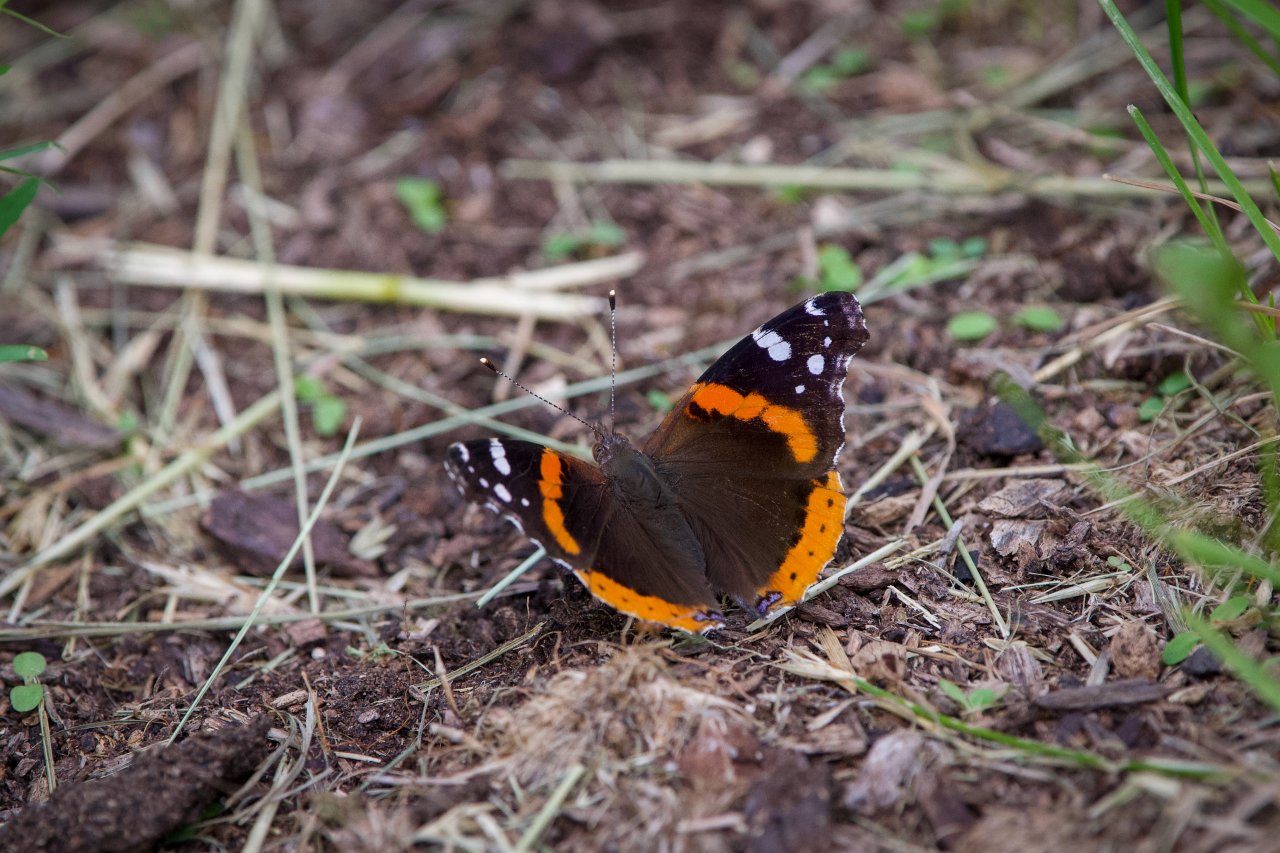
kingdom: Animalia
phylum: Arthropoda
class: Insecta
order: Lepidoptera
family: Nymphalidae
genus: Vanessa
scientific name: Vanessa atalanta
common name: Red Admiral
